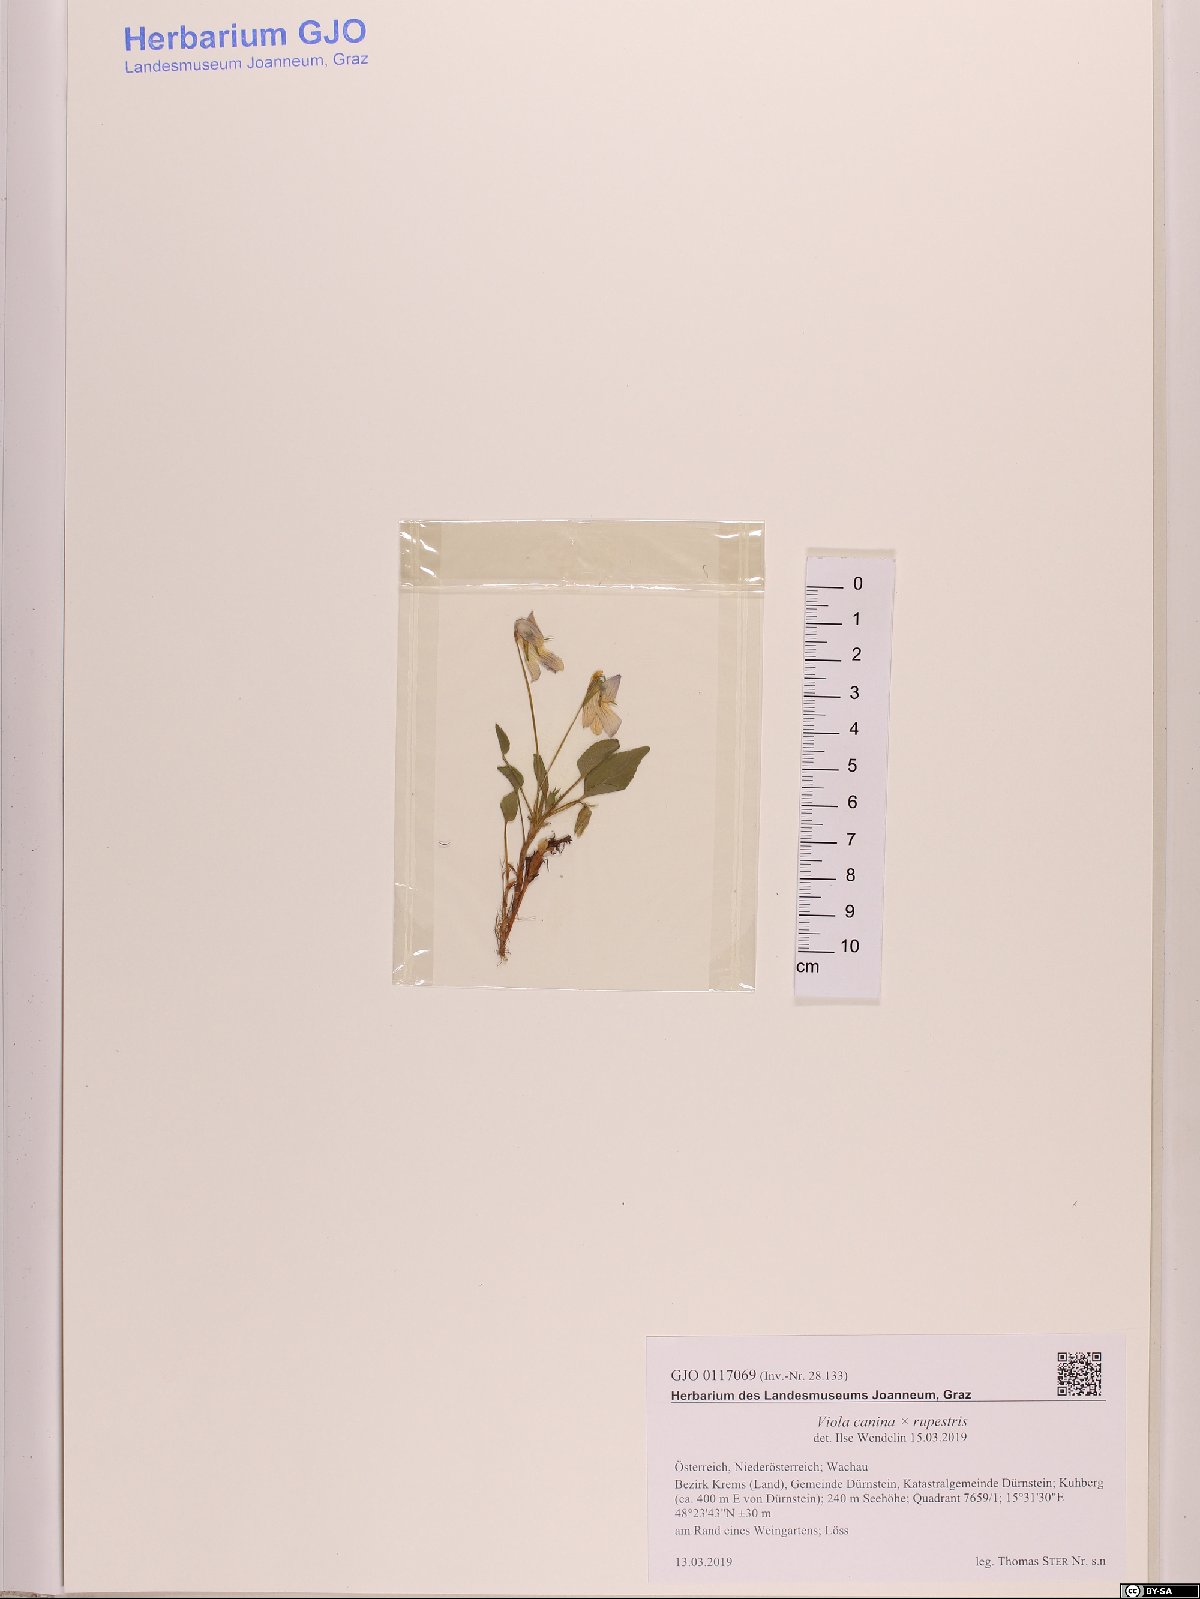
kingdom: Plantae
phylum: Tracheophyta
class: Magnoliopsida
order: Malpighiales
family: Violaceae
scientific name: Violaceae
